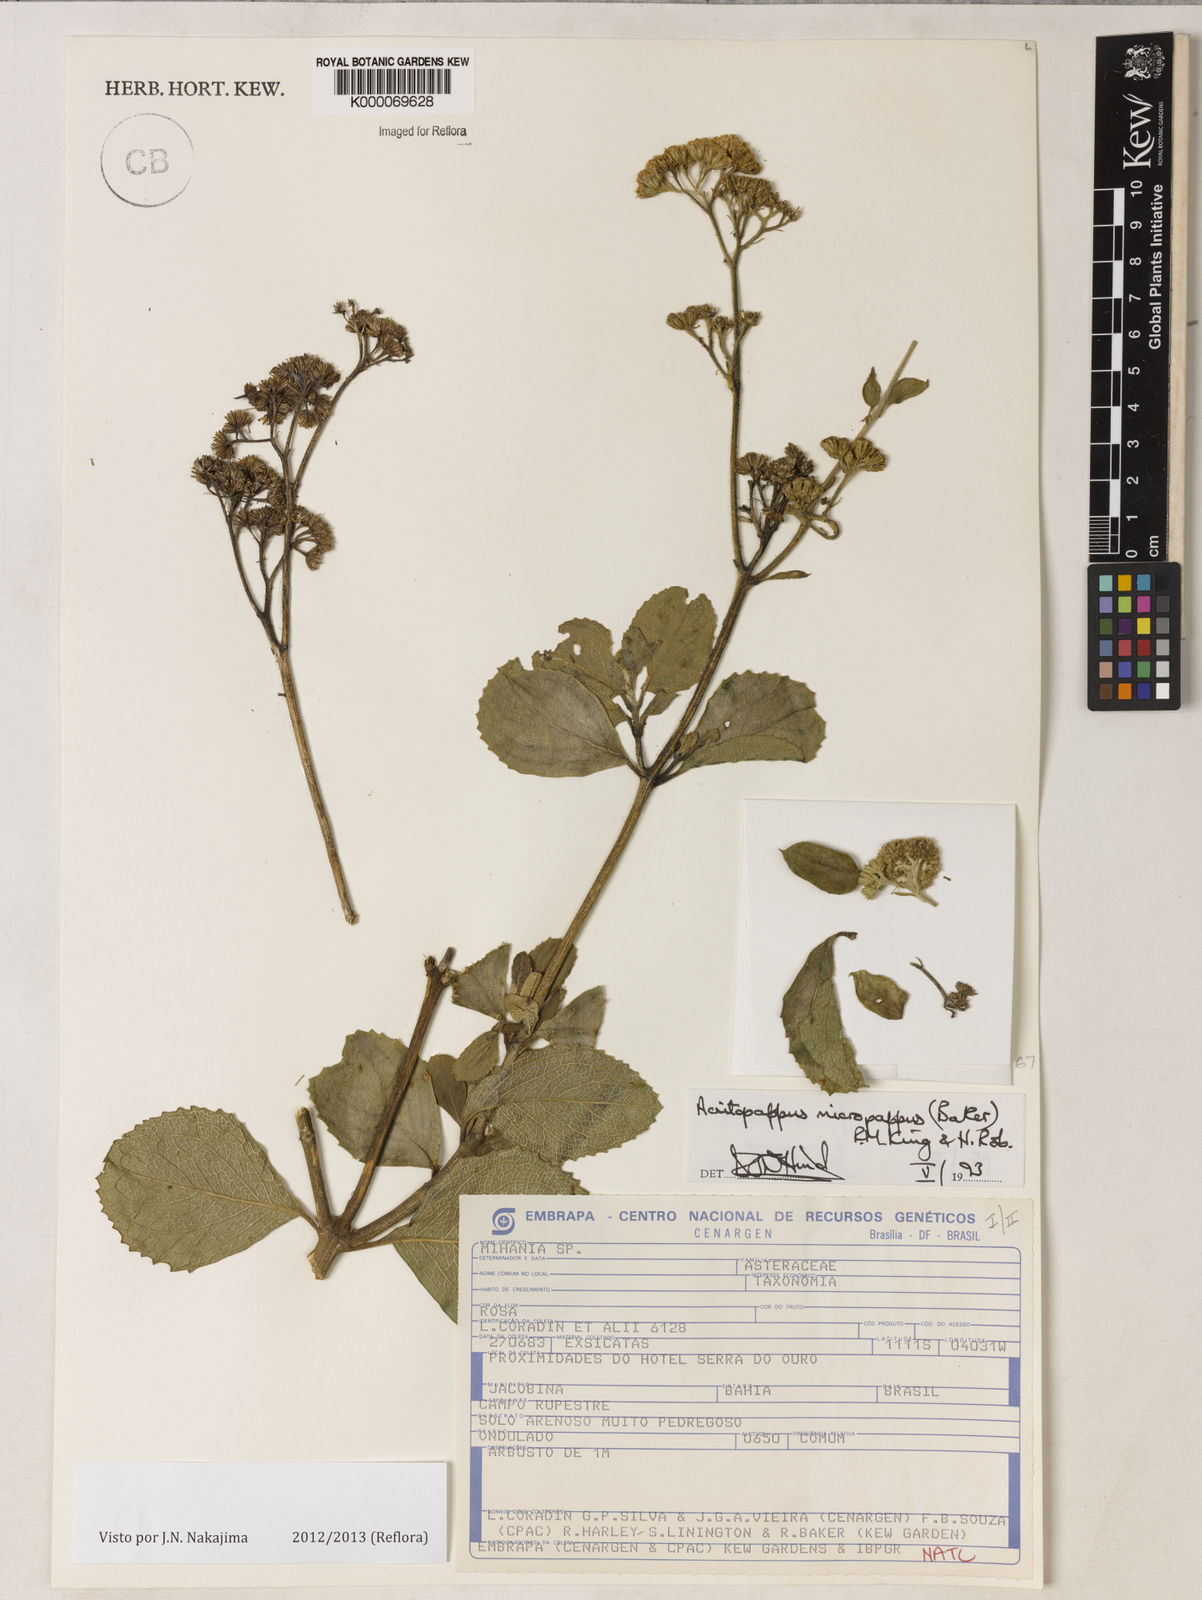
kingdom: Plantae
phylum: Tracheophyta
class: Magnoliopsida
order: Asterales
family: Asteraceae
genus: Acritopappus
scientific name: Acritopappus micropappus
